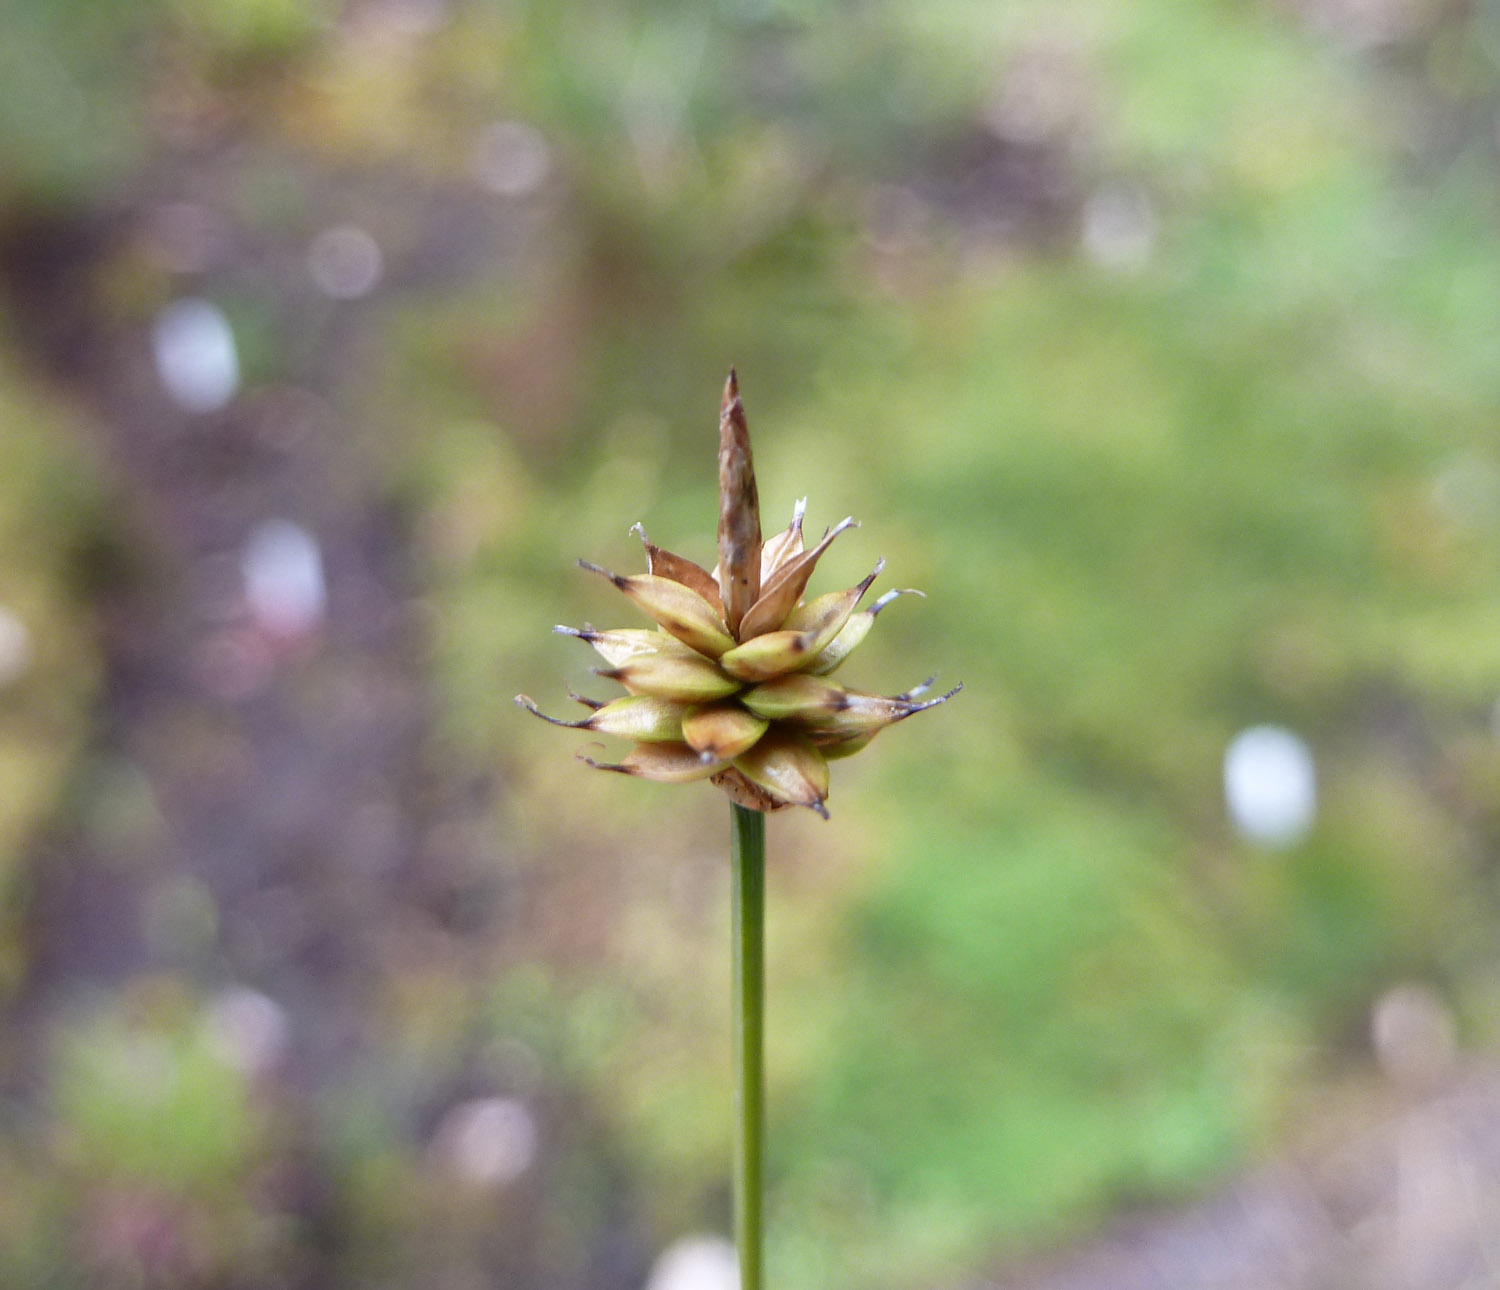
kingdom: Plantae
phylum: Tracheophyta
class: Liliopsida
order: Poales
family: Cyperaceae
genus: Carex
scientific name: Carex capitata
